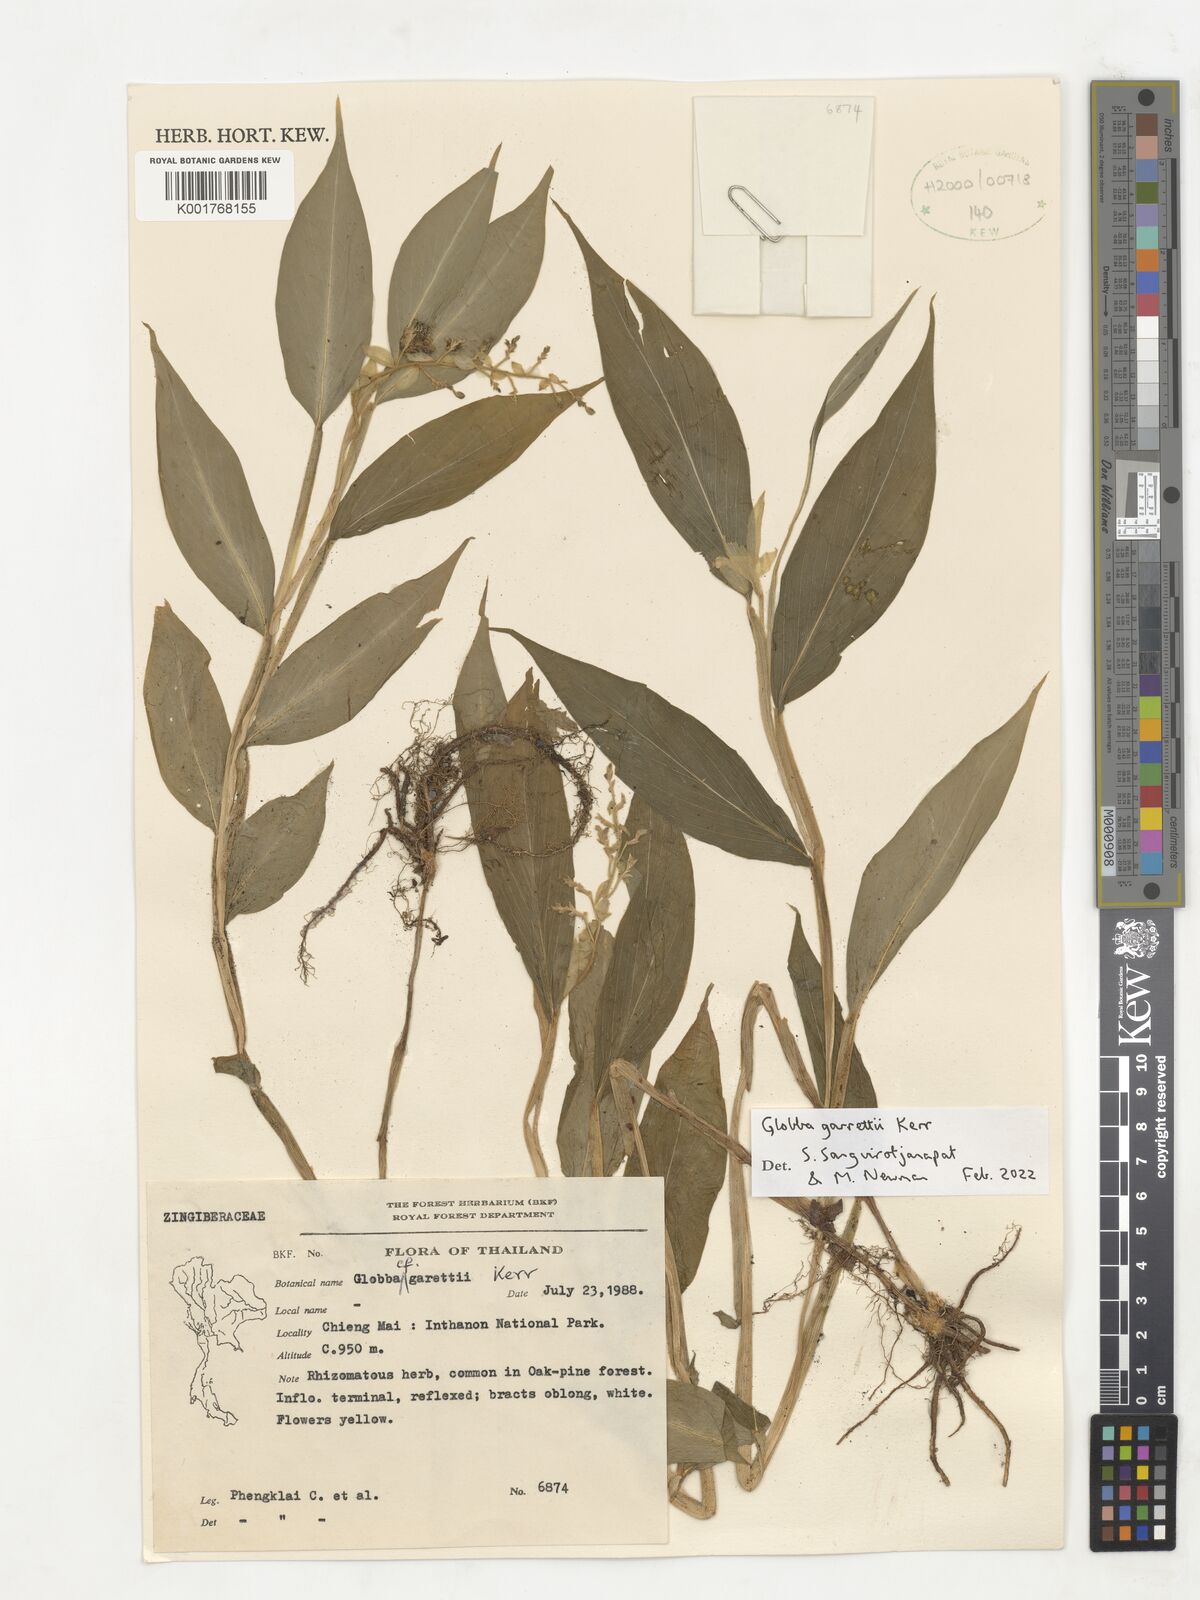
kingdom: Plantae
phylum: Tracheophyta
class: Liliopsida
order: Zingiberales
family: Zingiberaceae
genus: Globba
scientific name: Globba garrettii
